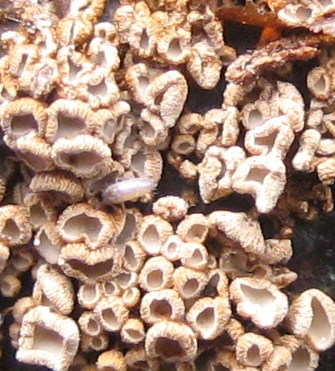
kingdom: Fungi
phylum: Basidiomycota
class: Agaricomycetes
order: Agaricales
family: Niaceae
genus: Merismodes
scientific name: Merismodes
